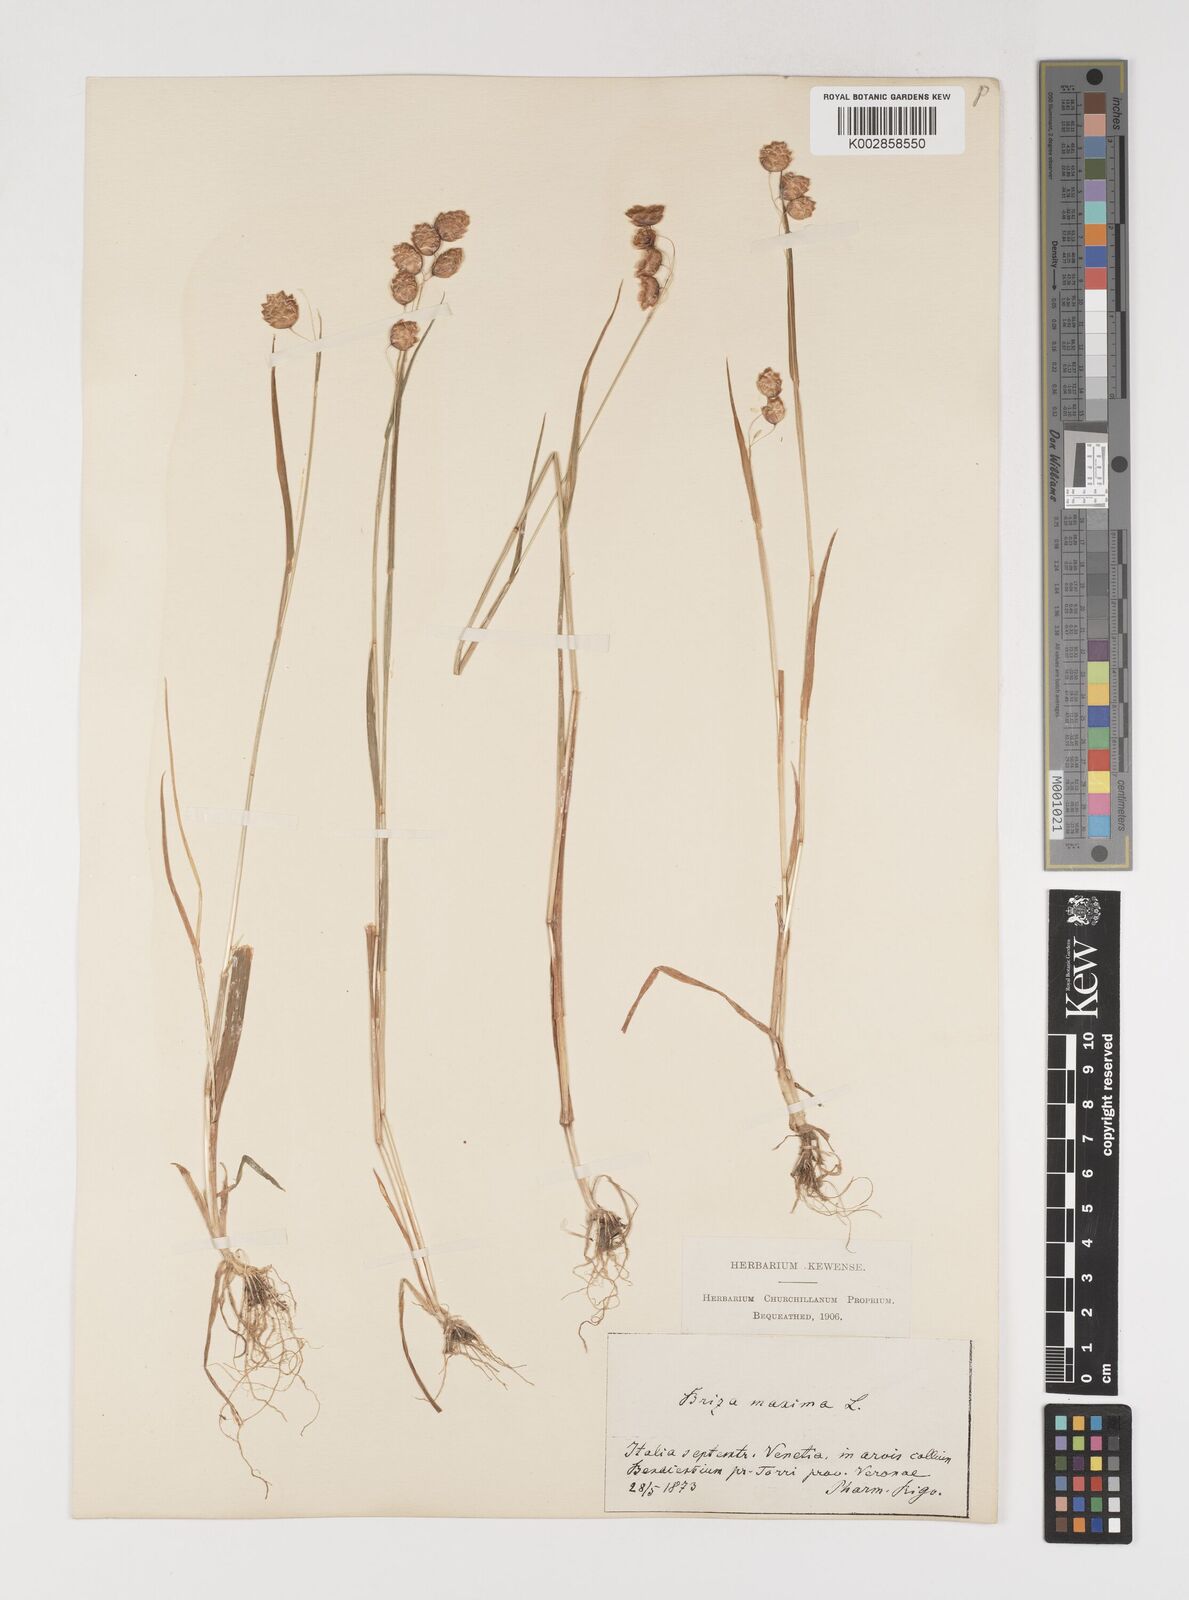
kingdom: Plantae
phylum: Tracheophyta
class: Liliopsida
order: Poales
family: Poaceae
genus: Briza
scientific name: Briza maxima
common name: Big quakinggrass
